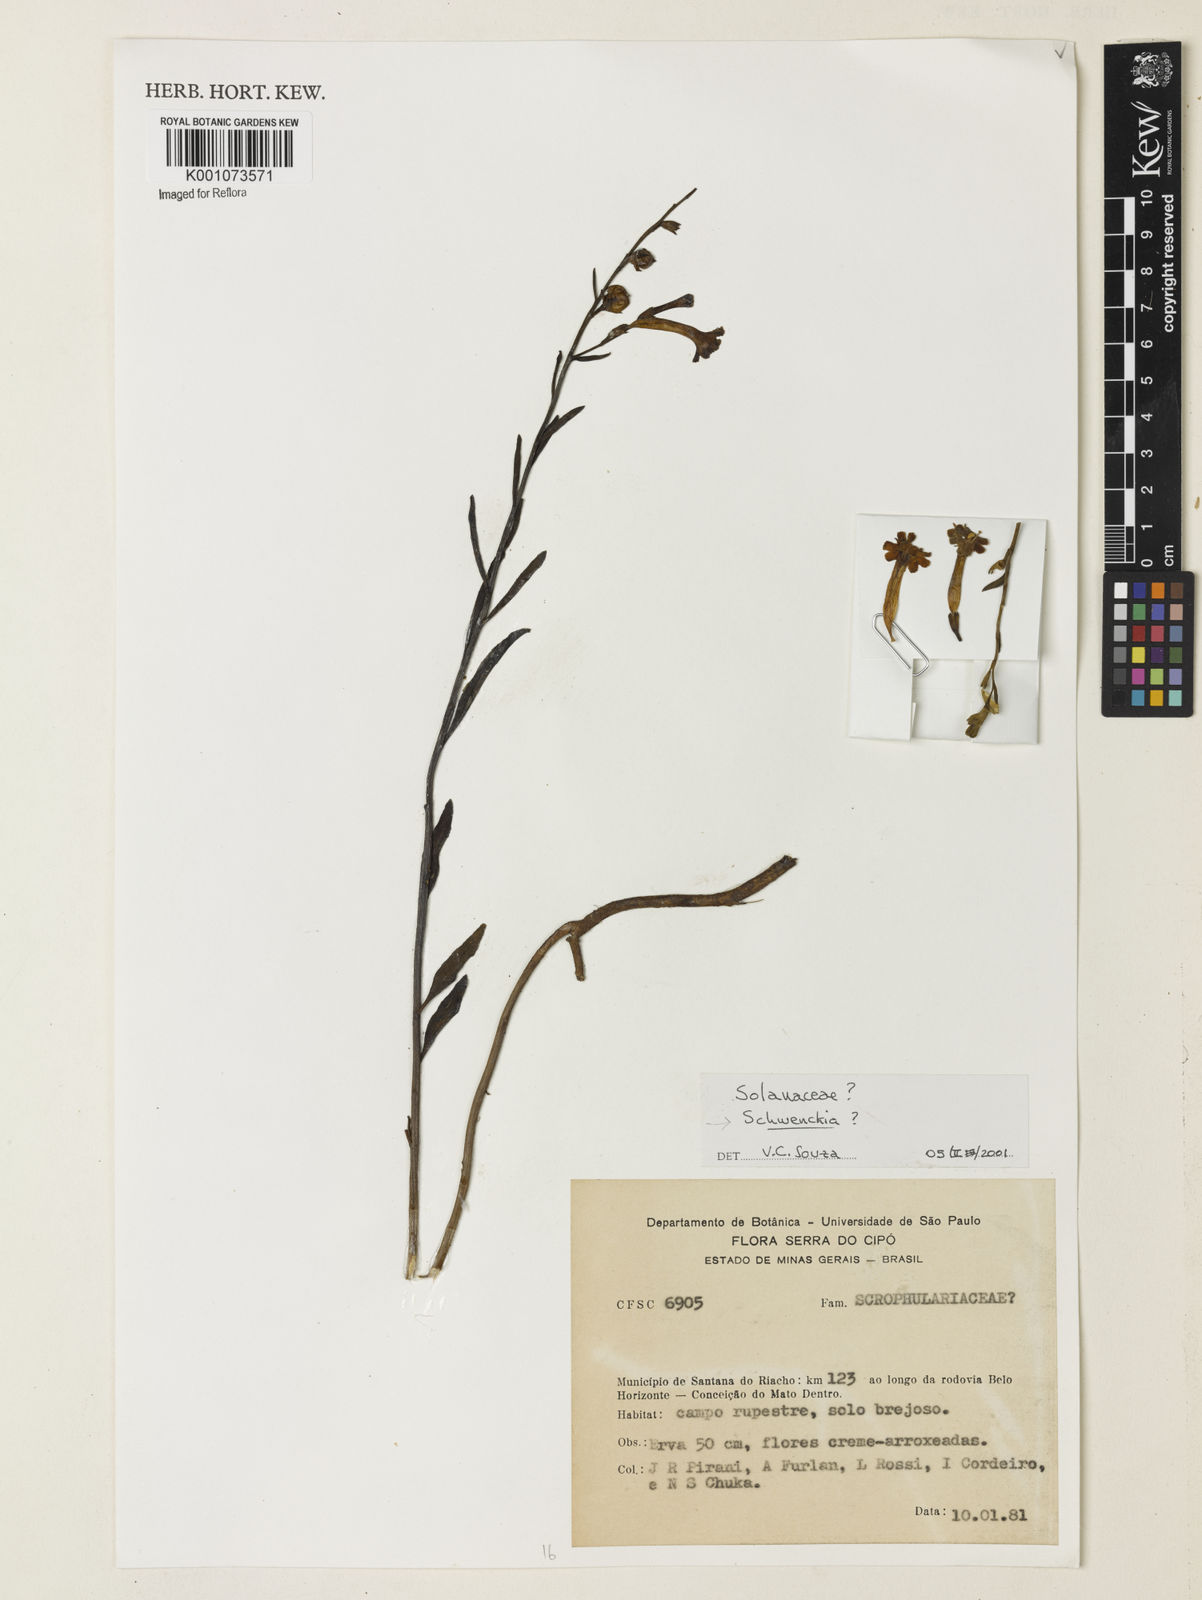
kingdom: Plantae
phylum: Tracheophyta
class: Magnoliopsida
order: Solanales
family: Solanaceae
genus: Schwenckia
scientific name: Schwenckia
